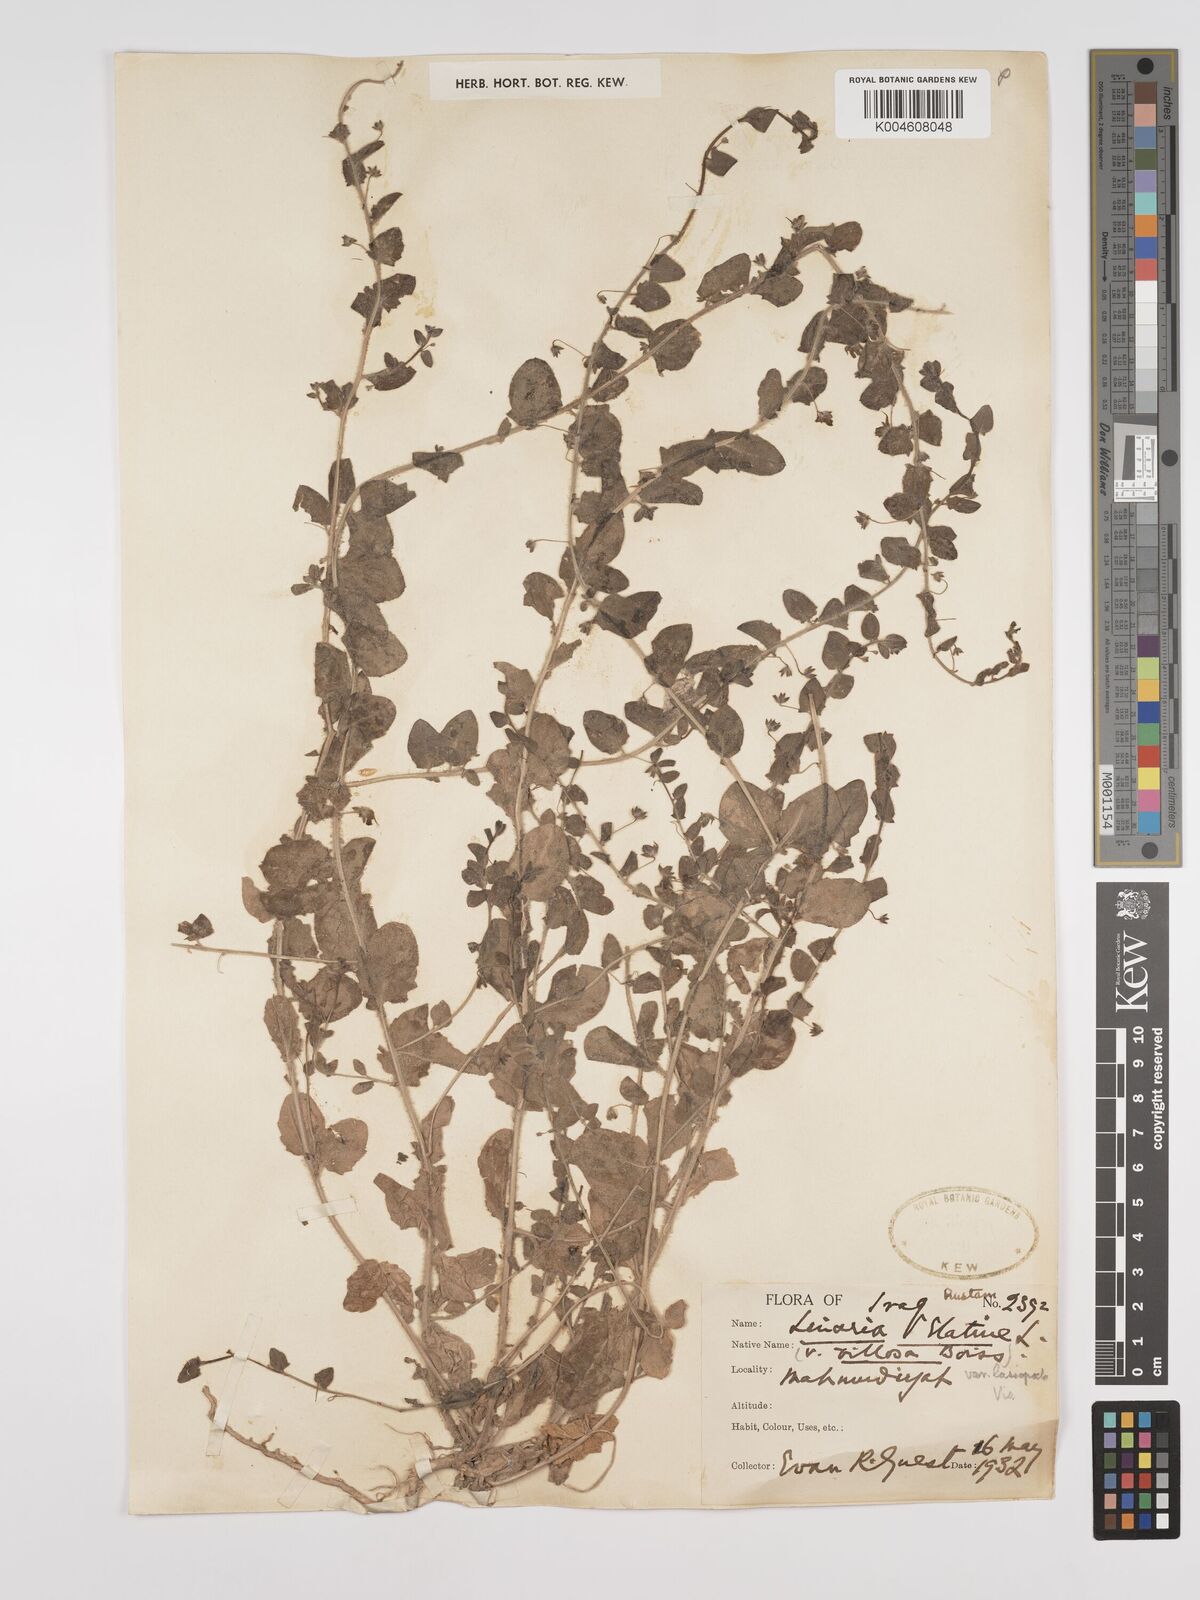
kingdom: Plantae
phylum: Tracheophyta
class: Magnoliopsida
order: Lamiales
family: Plantaginaceae
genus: Kickxia
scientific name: Kickxia elatine
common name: Sharp-leaved fluellen
